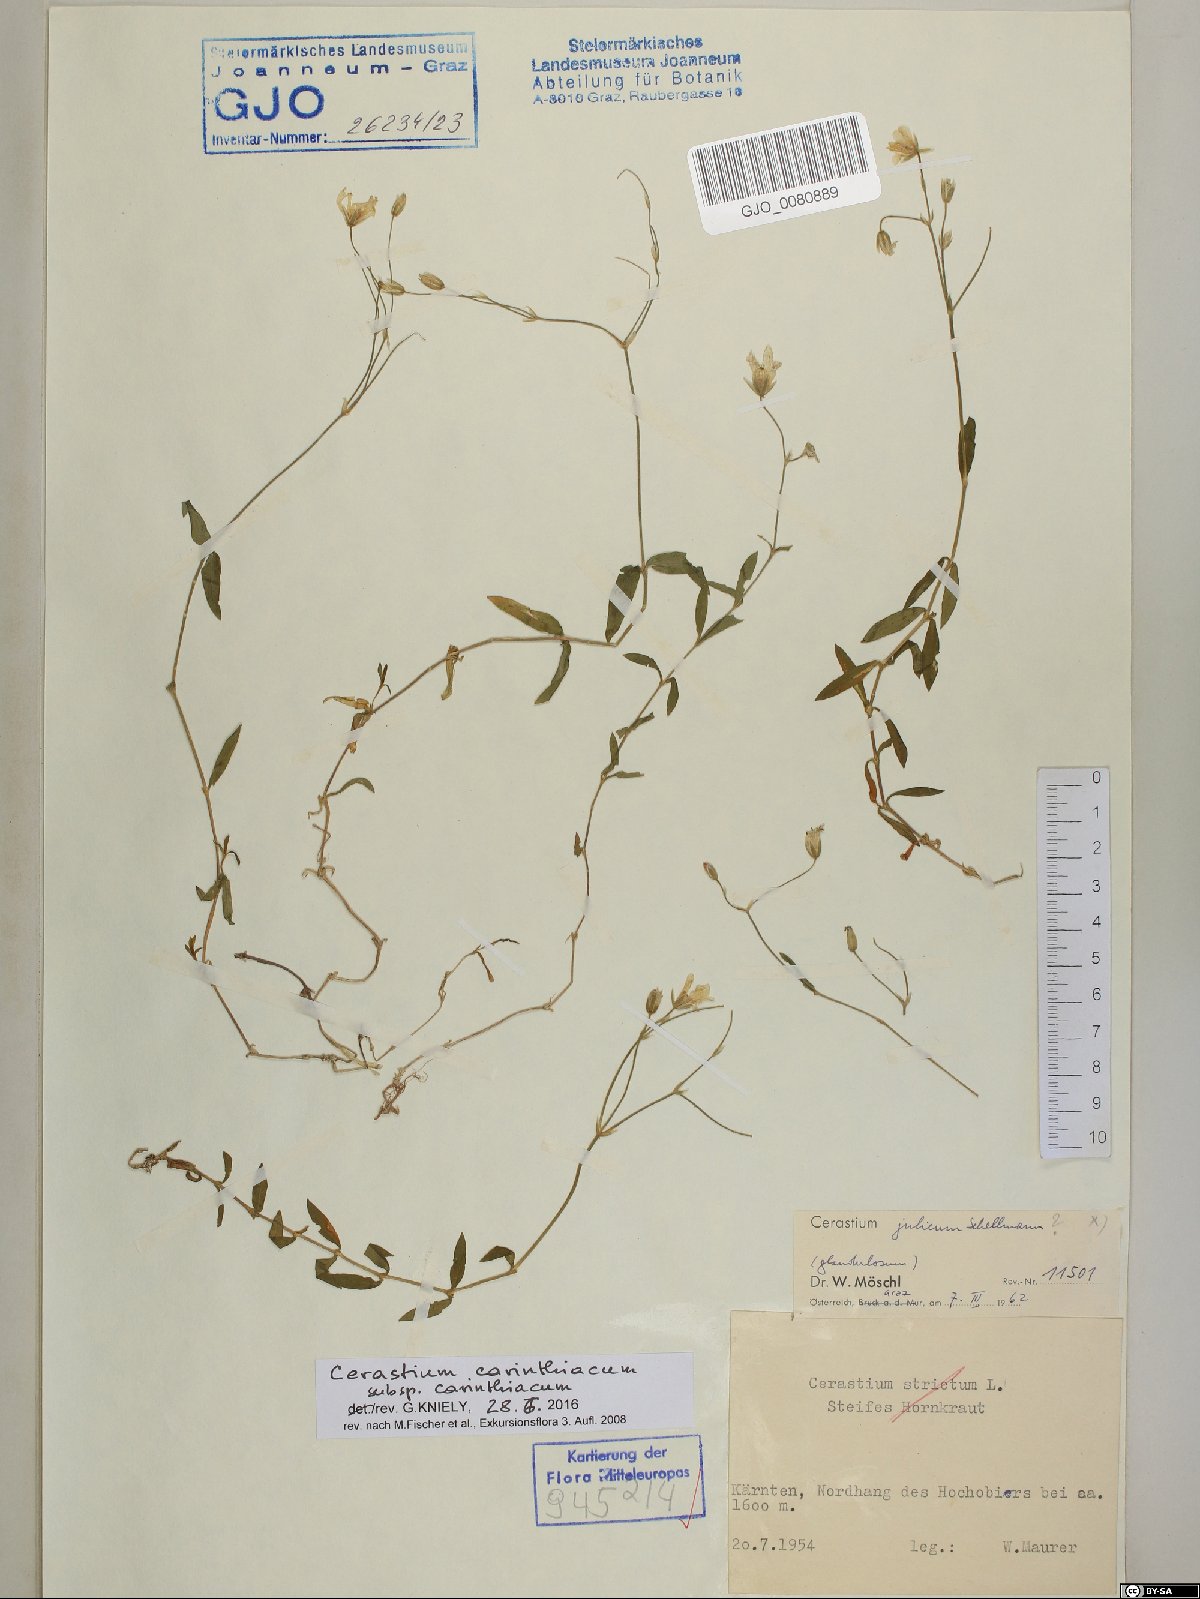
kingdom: Plantae
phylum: Tracheophyta
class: Magnoliopsida
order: Caryophyllales
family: Caryophyllaceae
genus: Cerastium
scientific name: Cerastium carinthiacum
